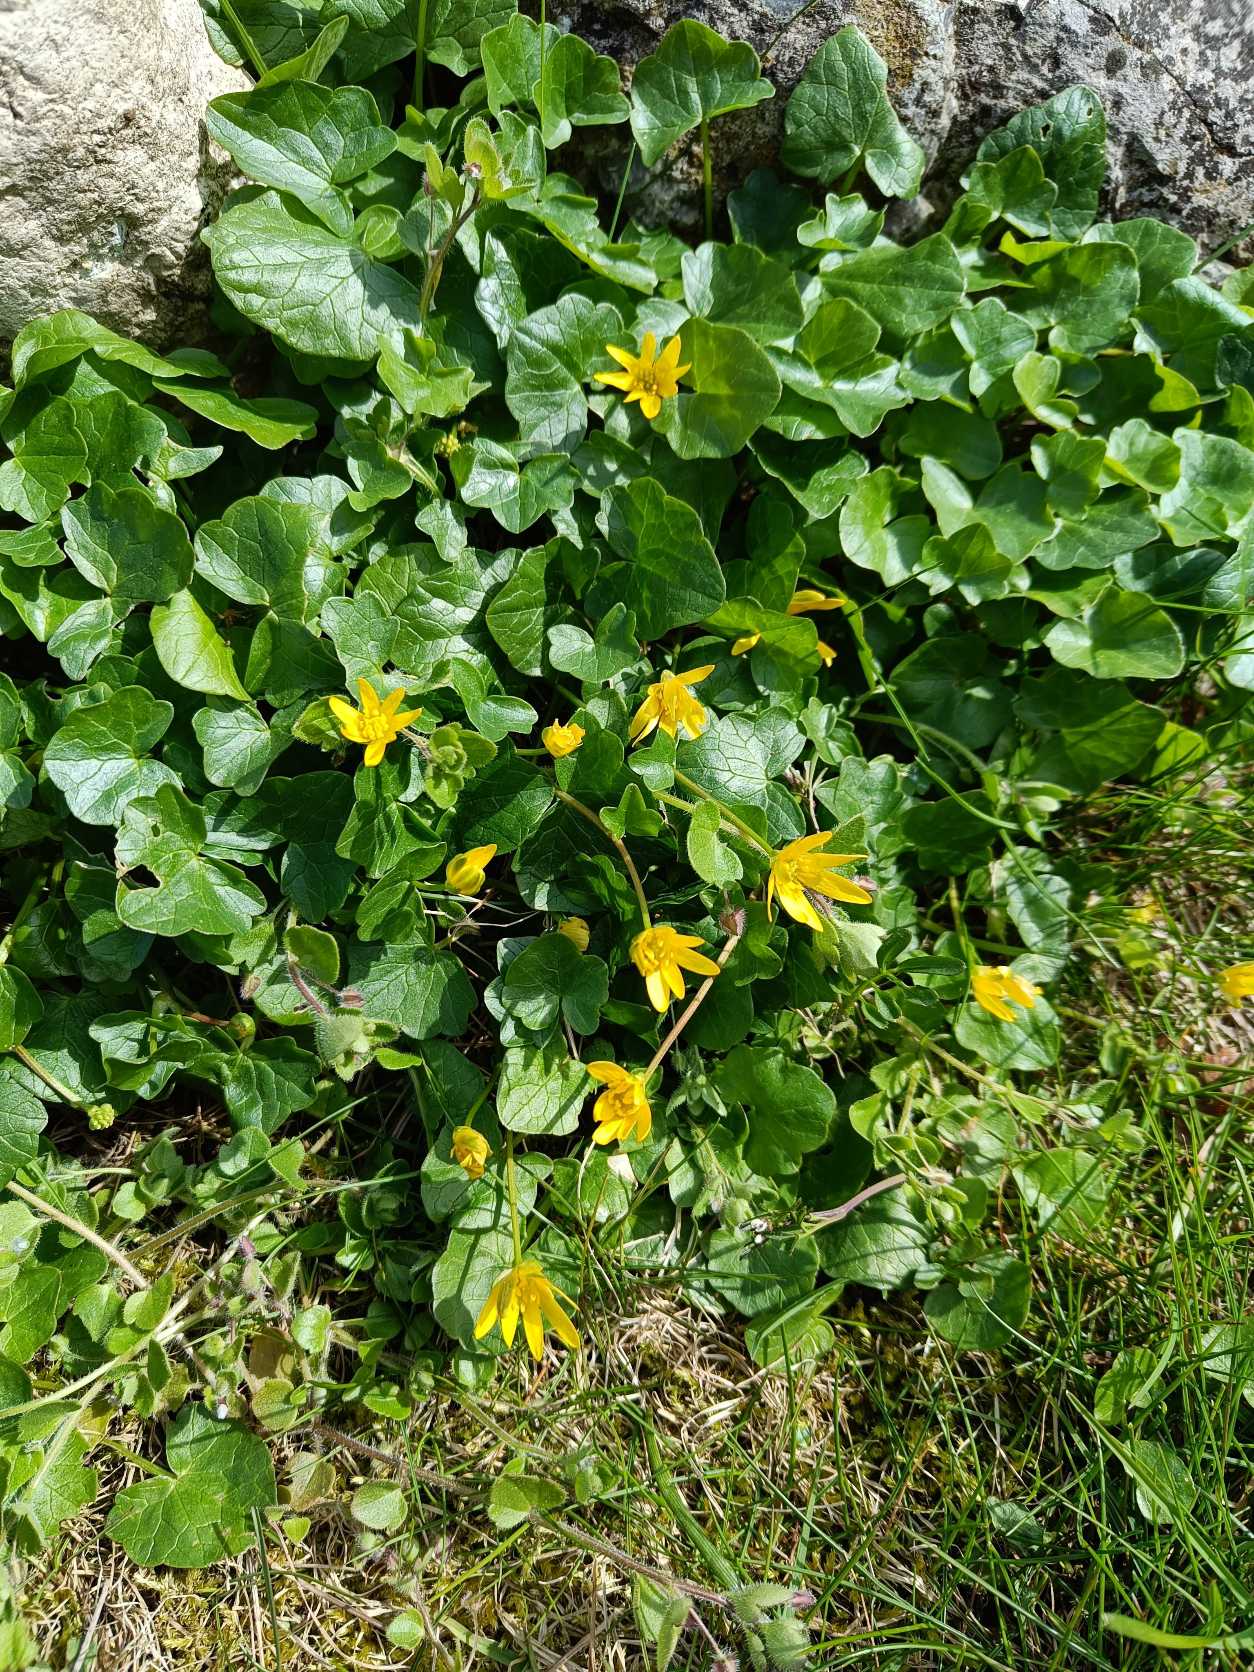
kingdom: Plantae
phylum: Tracheophyta
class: Magnoliopsida
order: Ranunculales
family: Ranunculaceae
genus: Ficaria
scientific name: Ficaria verna
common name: Vorterod
